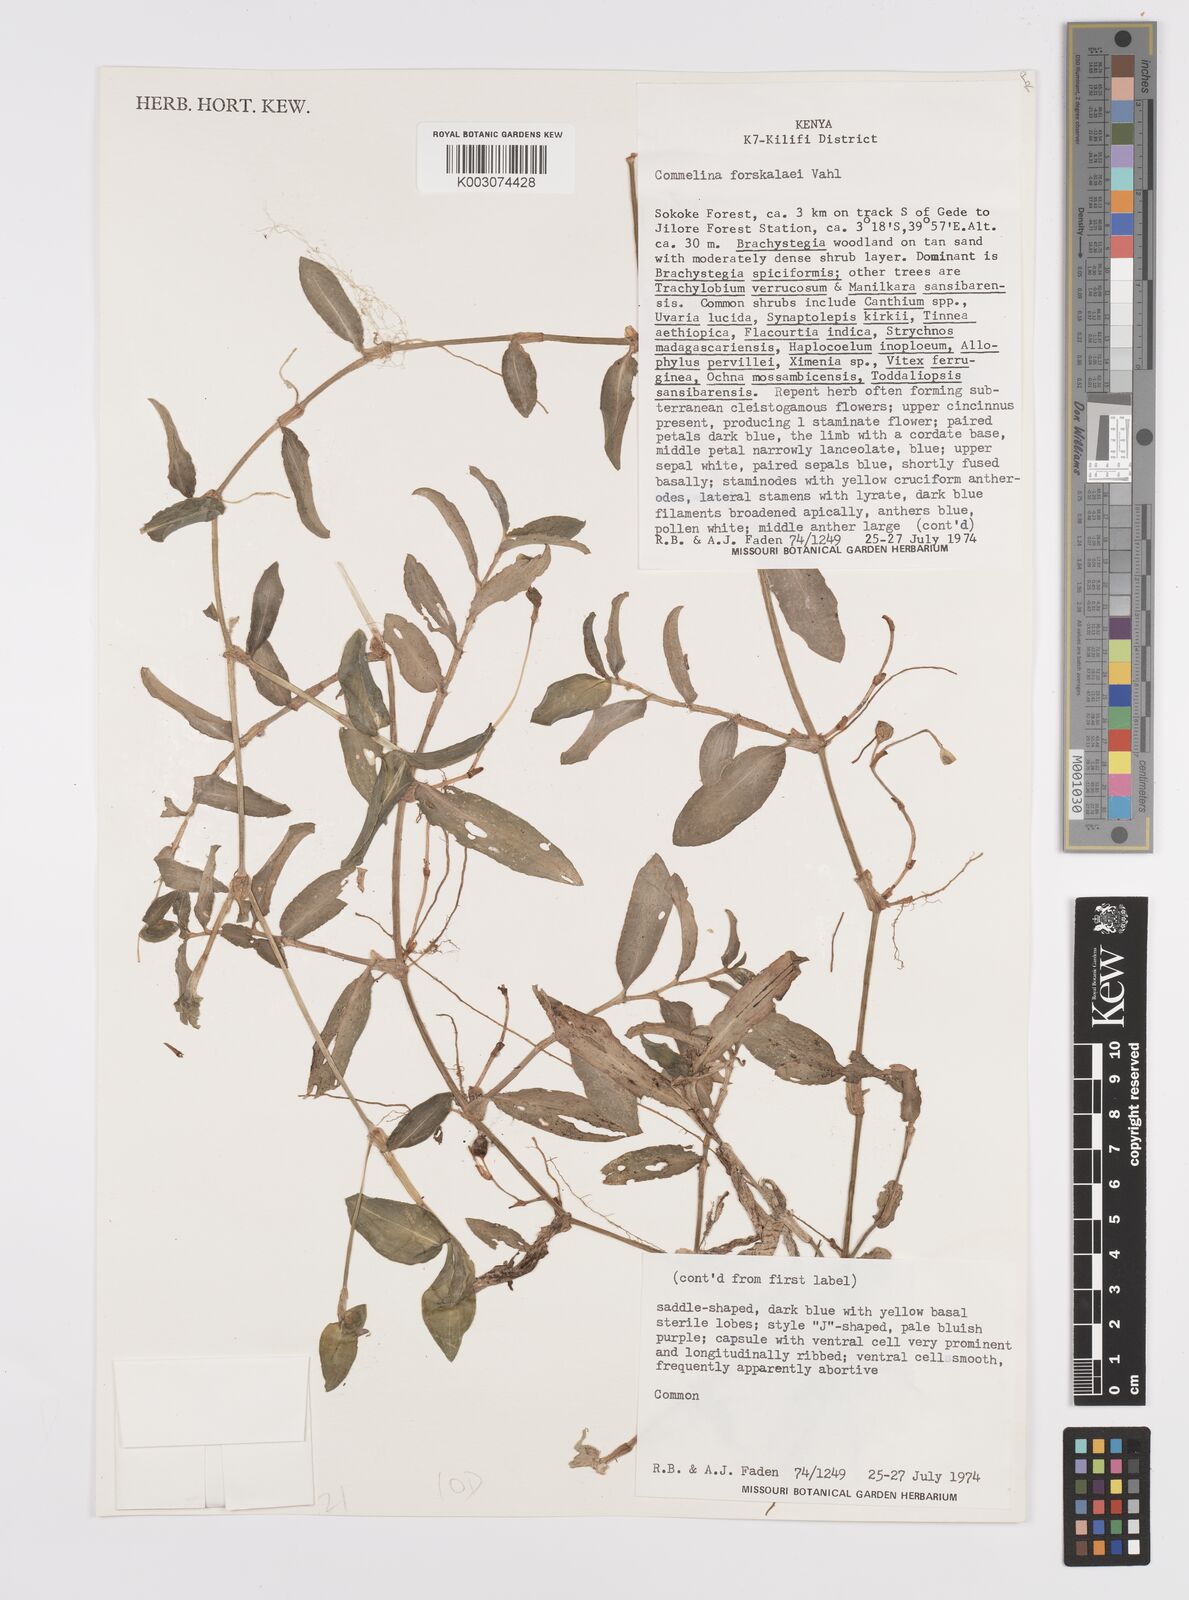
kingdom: Plantae
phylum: Tracheophyta
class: Liliopsida
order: Commelinales
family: Commelinaceae
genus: Commelina
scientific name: Commelina forskaolii
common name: Rat's ear
